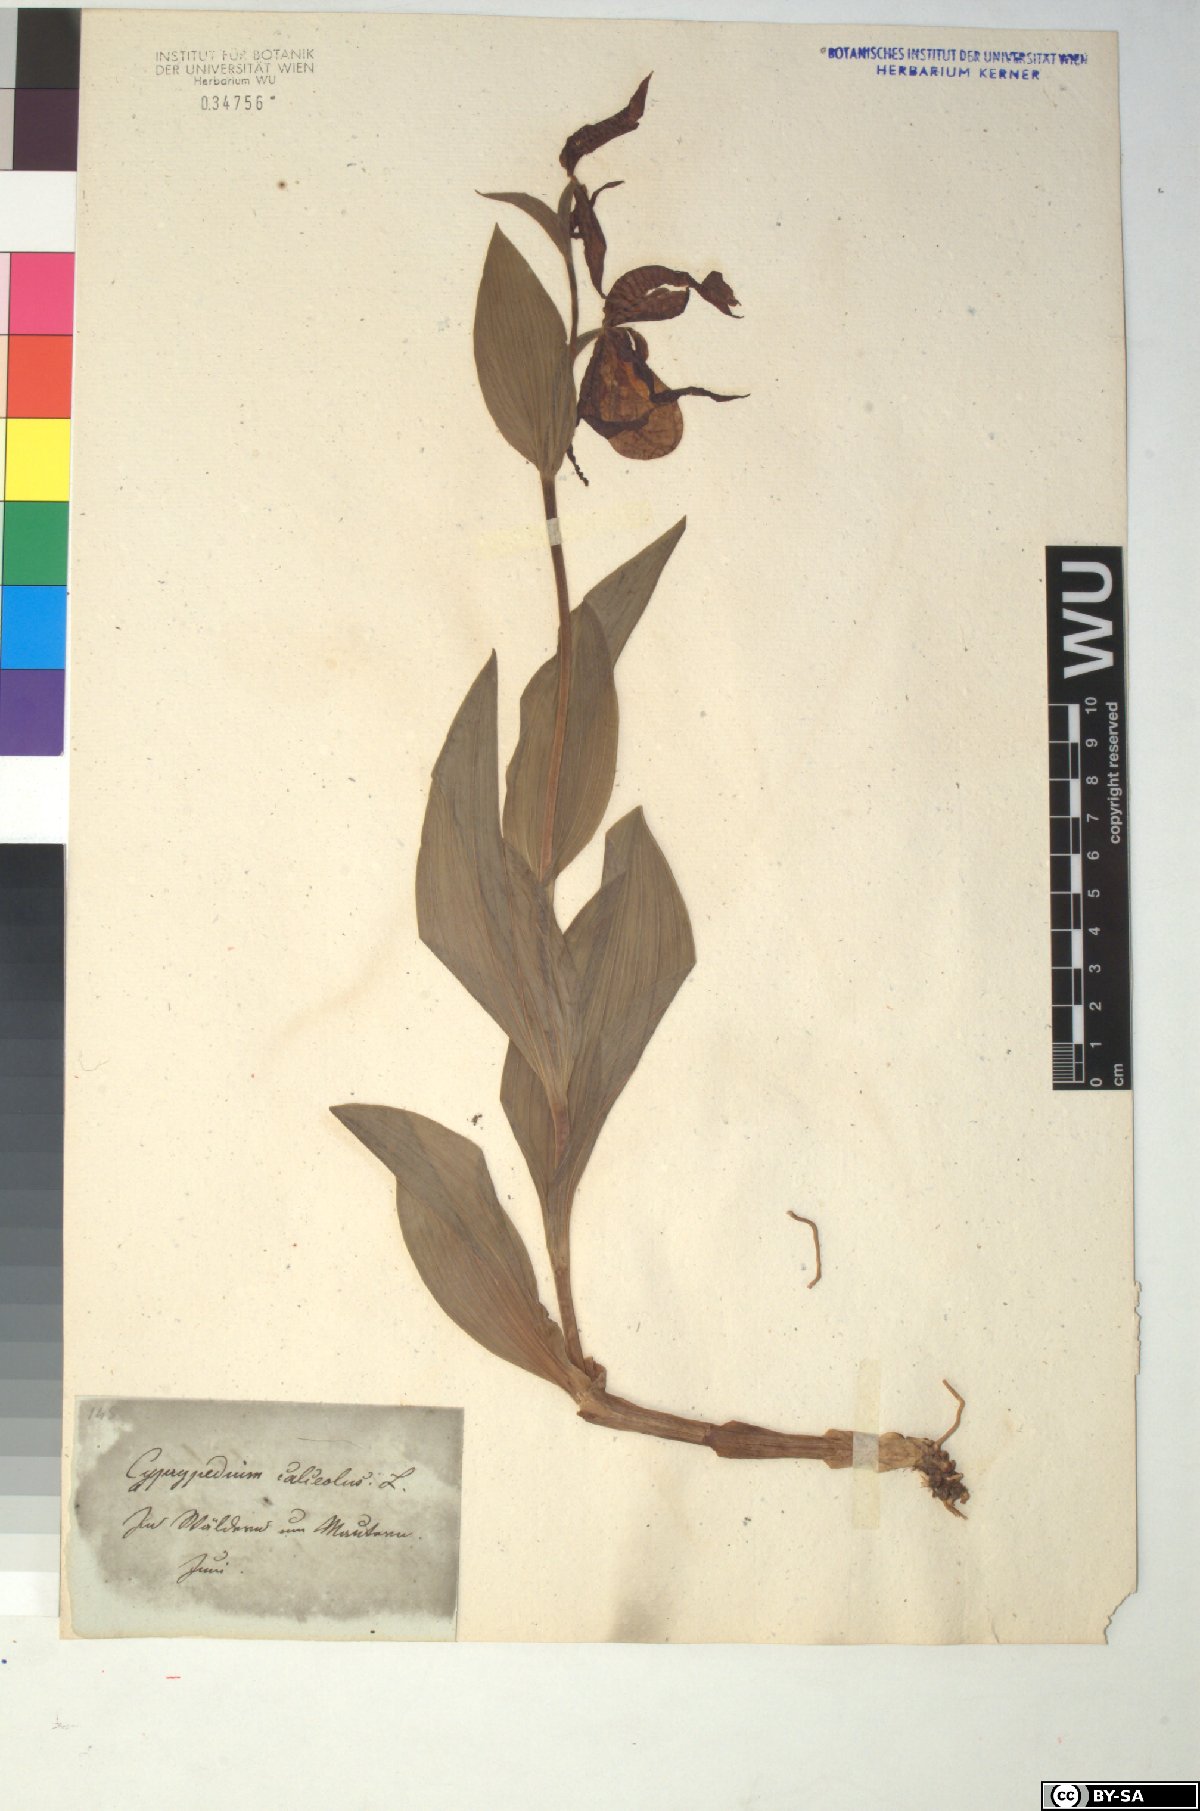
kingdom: Plantae
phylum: Tracheophyta
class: Liliopsida
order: Asparagales
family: Orchidaceae
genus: Cypripedium
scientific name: Cypripedium calceolus
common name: Lady's-slipper
